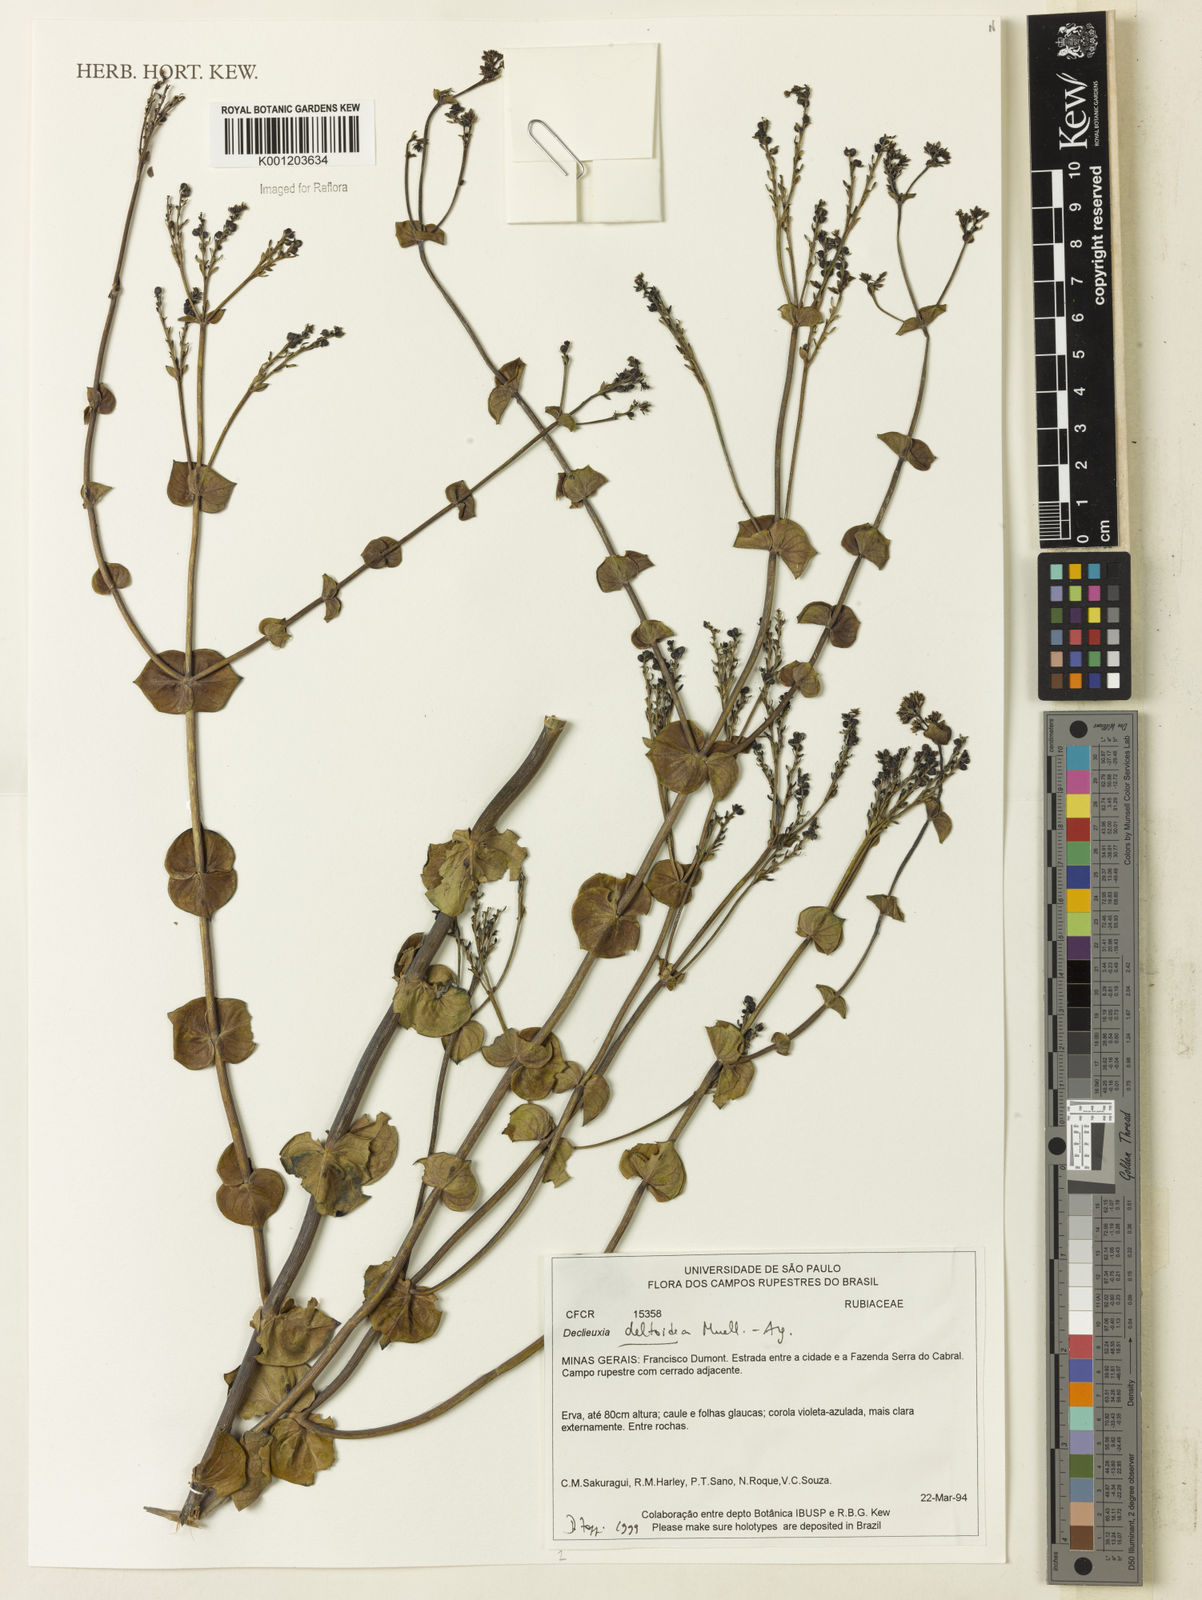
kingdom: Plantae
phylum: Tracheophyta
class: Magnoliopsida
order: Gentianales
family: Rubiaceae
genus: Declieuxia
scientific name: Declieuxia
